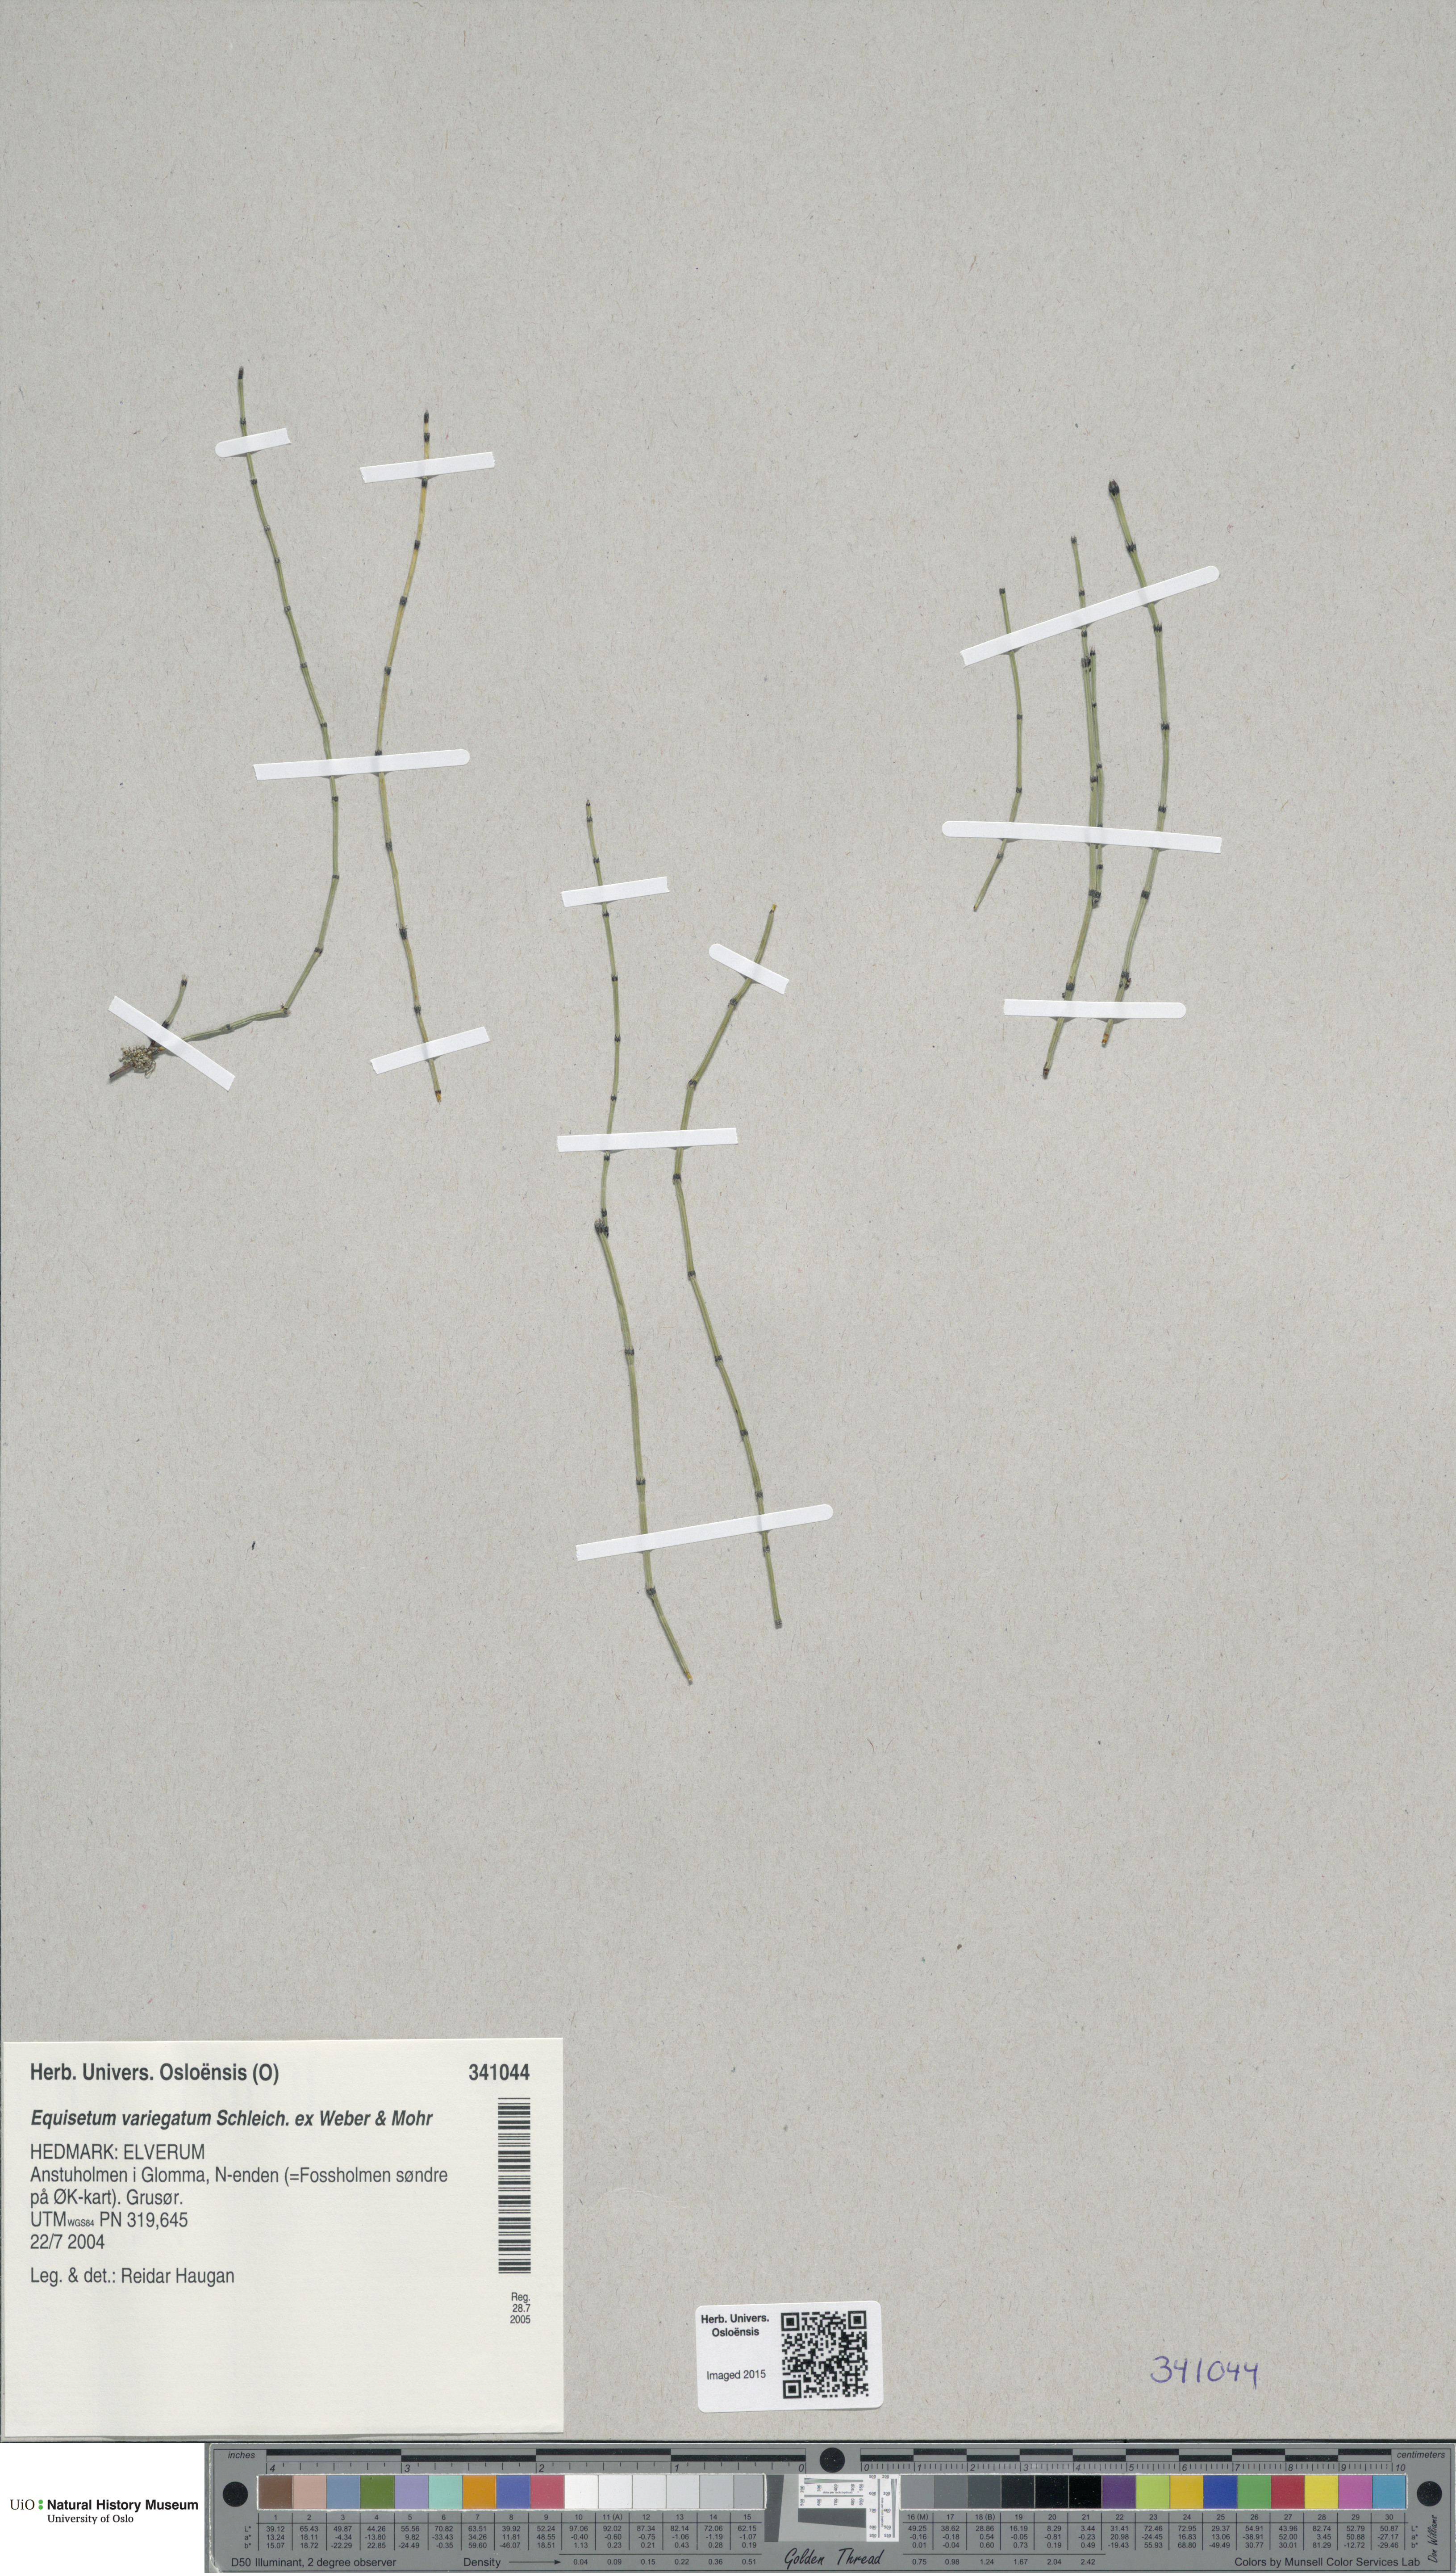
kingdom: Plantae
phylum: Tracheophyta
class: Polypodiopsida
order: Equisetales
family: Equisetaceae
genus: Equisetum
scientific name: Equisetum variegatum
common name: Variegated horsetail
